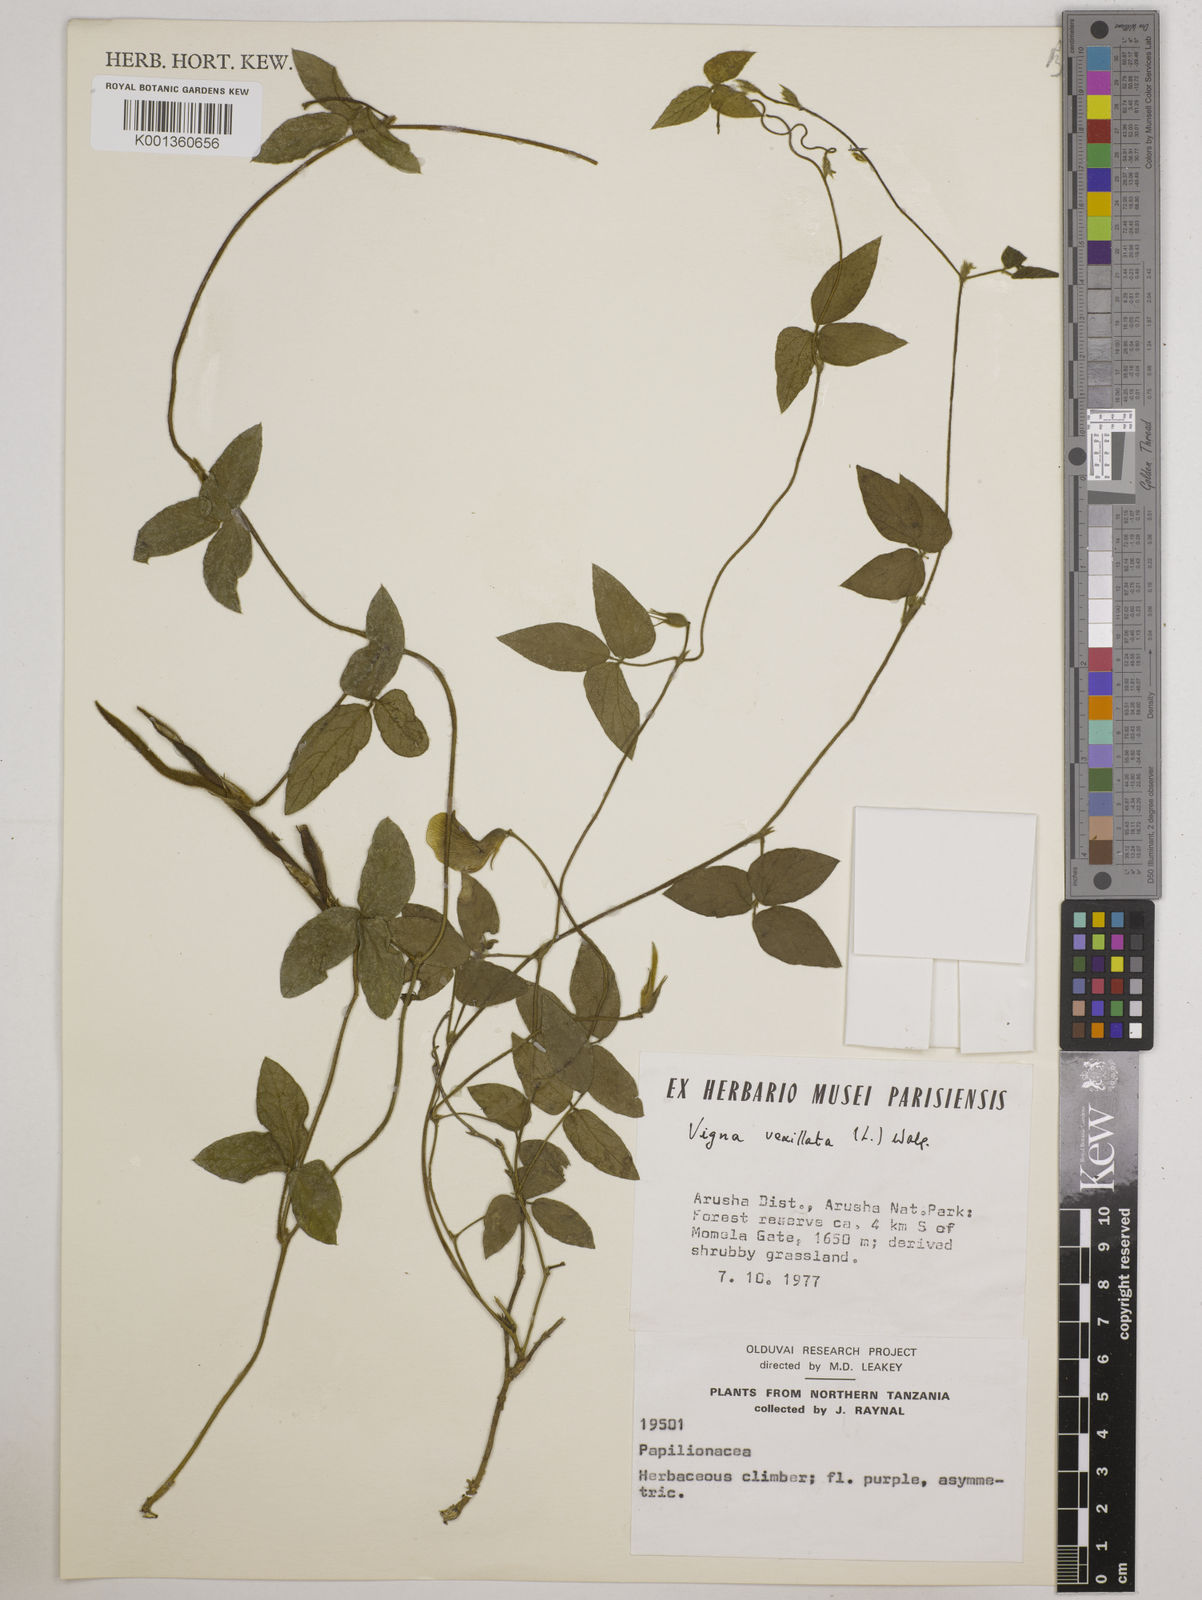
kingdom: Plantae
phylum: Tracheophyta
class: Magnoliopsida
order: Fabales
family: Fabaceae
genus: Vigna
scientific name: Vigna vexillata
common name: Zombi pea
